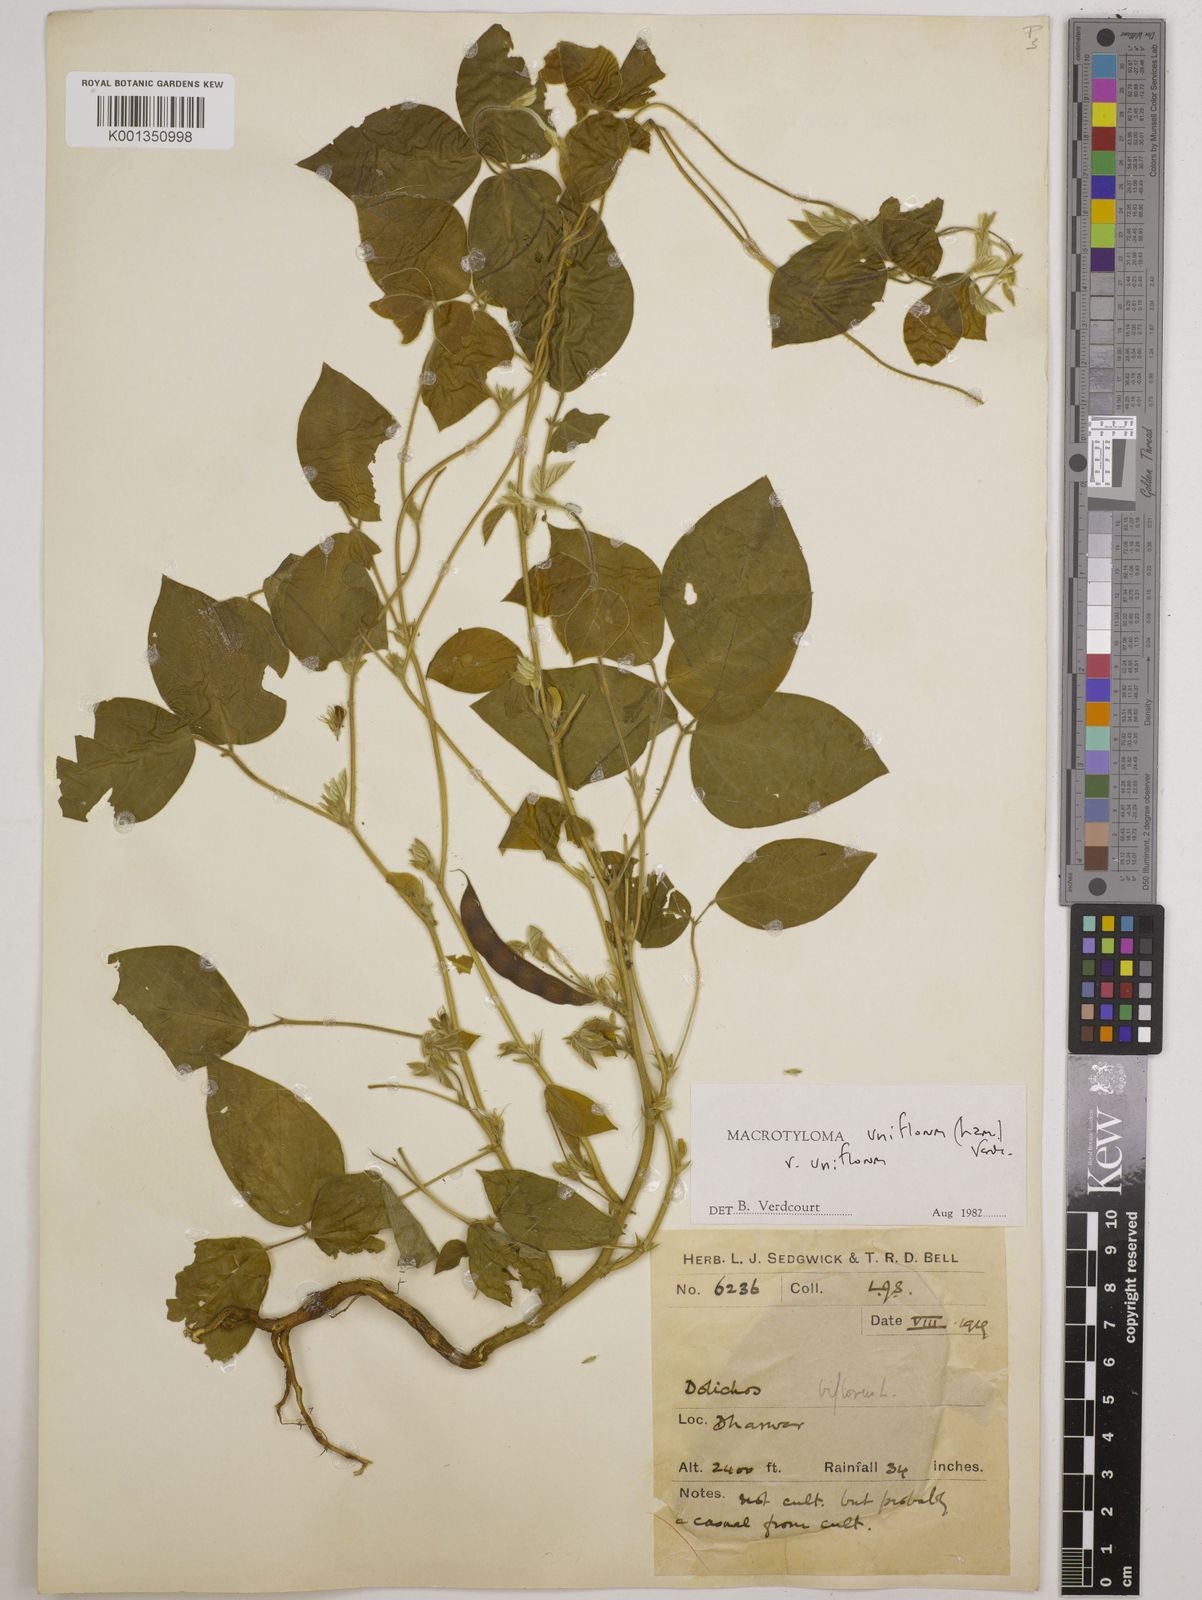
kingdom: Plantae
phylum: Tracheophyta
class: Magnoliopsida
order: Fabales
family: Fabaceae
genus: Macrotyloma
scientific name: Macrotyloma uniflorum
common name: Horse gram
